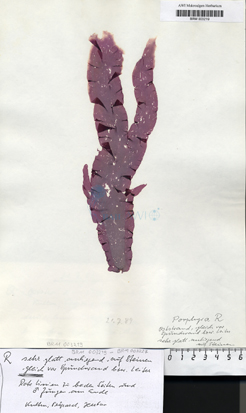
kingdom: Plantae
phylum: Rhodophyta
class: Bangiophyceae
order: Bangiales
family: Bangiaceae
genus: Porphyra
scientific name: Porphyra
